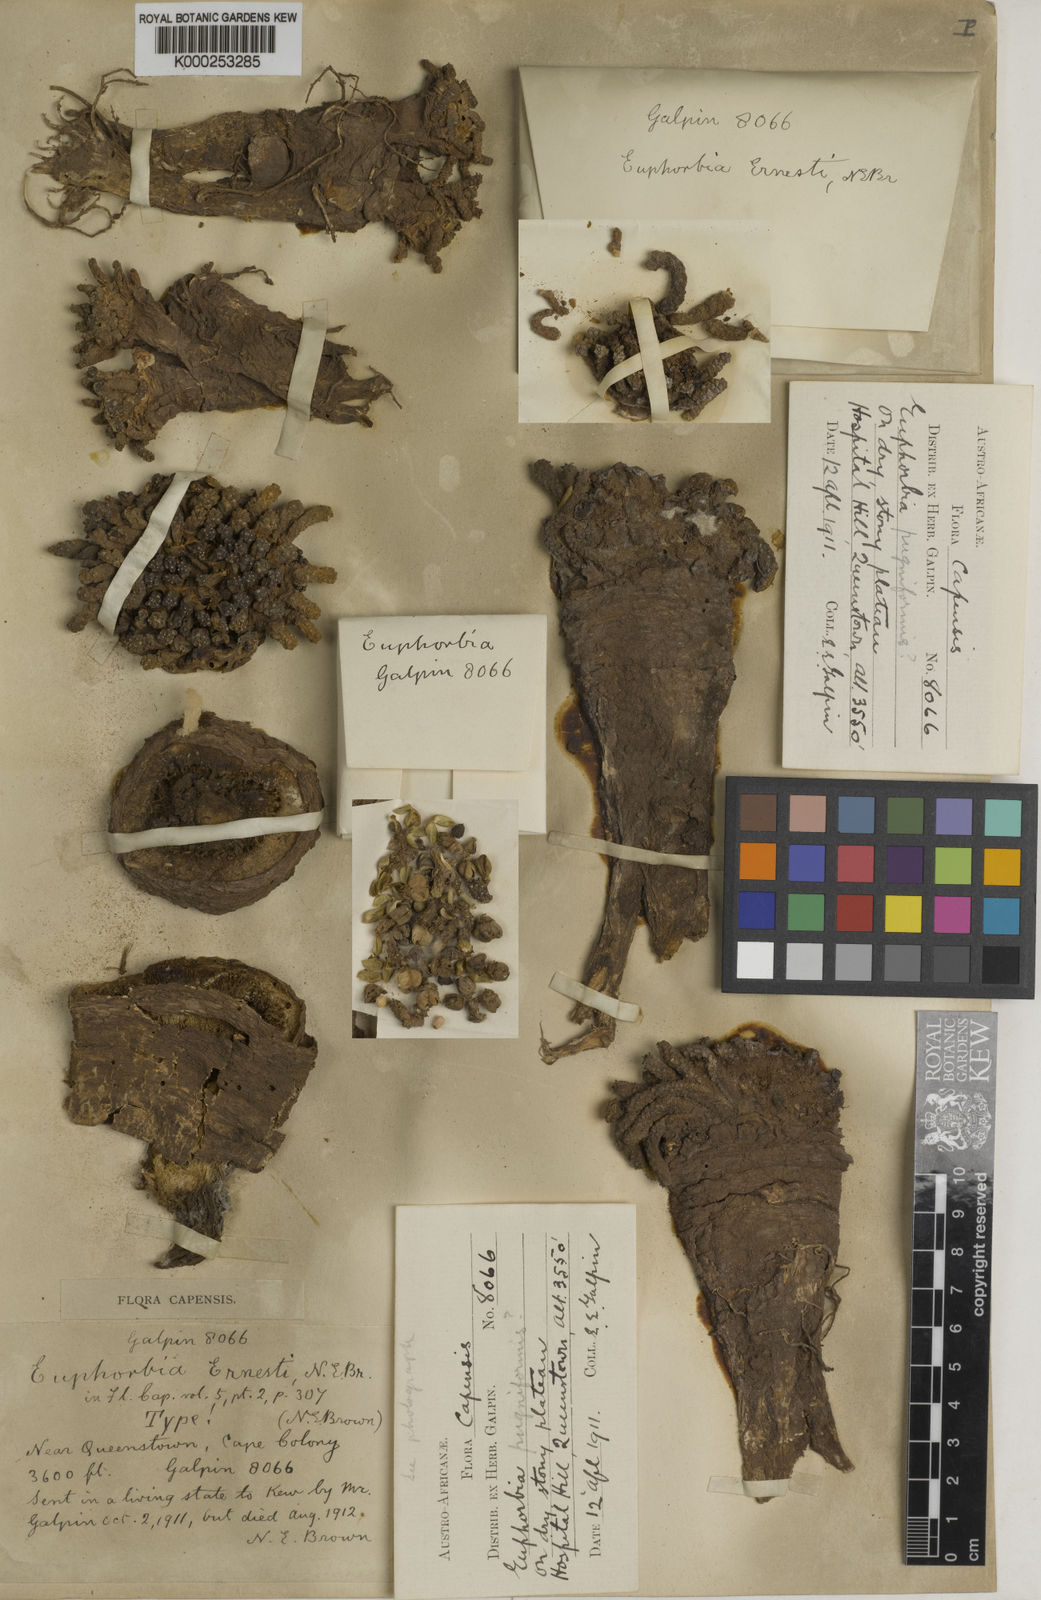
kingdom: Plantae
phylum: Tracheophyta
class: Magnoliopsida
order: Malpighiales
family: Euphorbiaceae
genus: Euphorbia
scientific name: Euphorbia flanaganii
